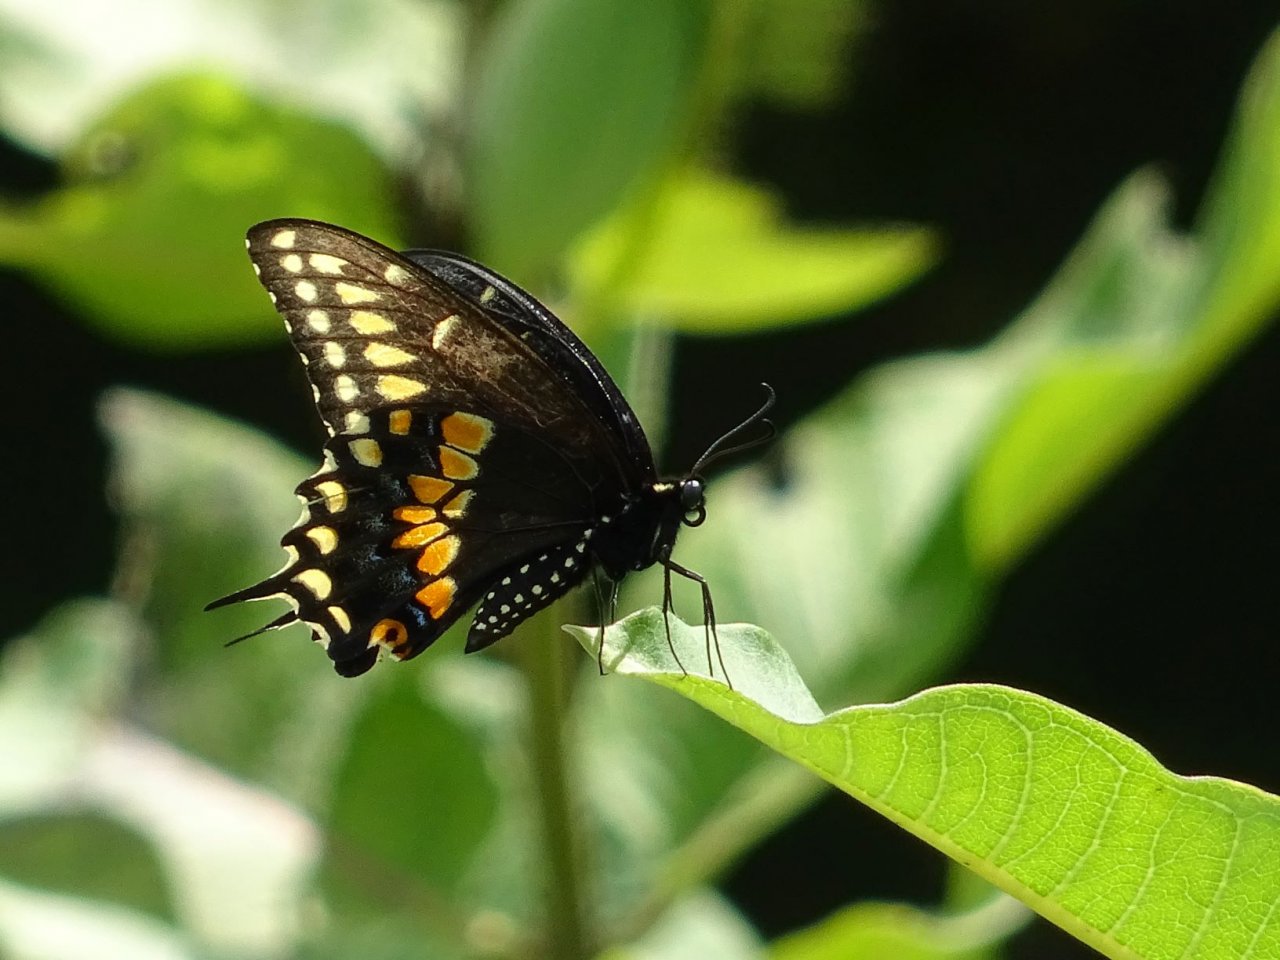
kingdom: Animalia
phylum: Arthropoda
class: Insecta
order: Lepidoptera
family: Papilionidae
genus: Papilio
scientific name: Papilio polyxenes
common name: Black Swallowtail
